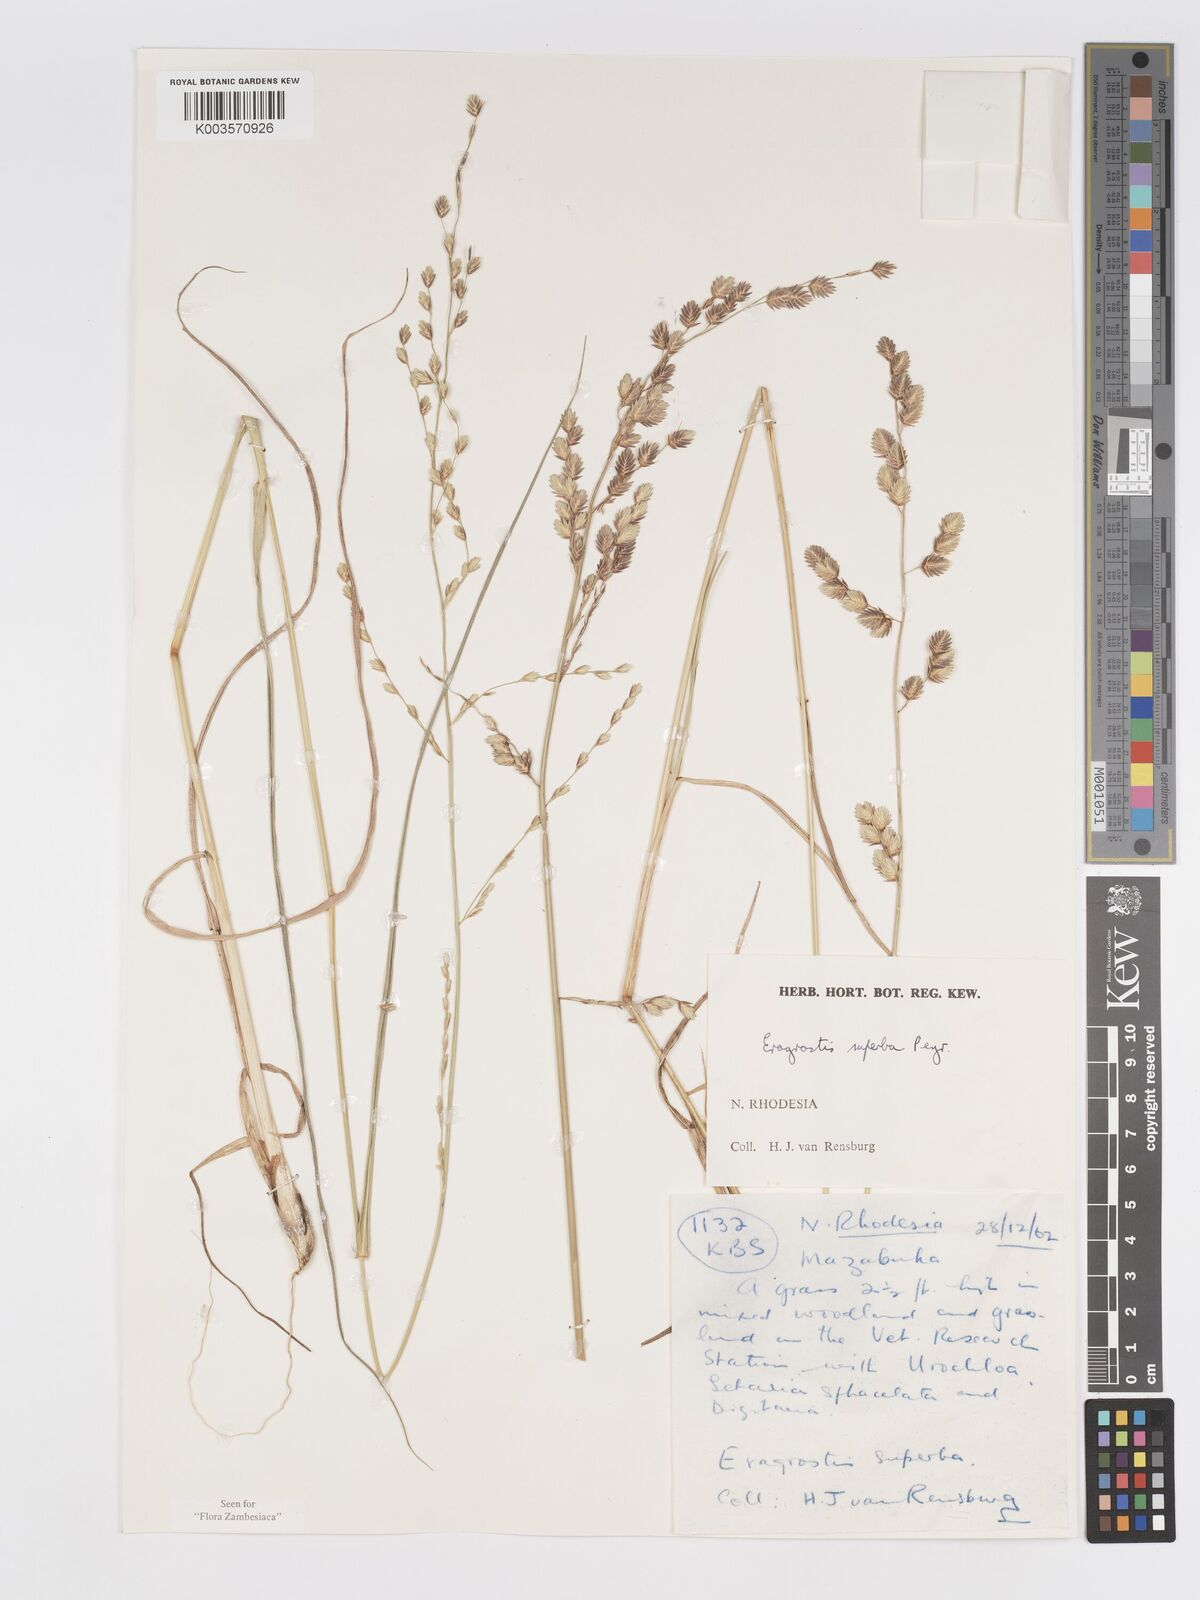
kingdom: Plantae
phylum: Tracheophyta
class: Liliopsida
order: Poales
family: Poaceae
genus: Eragrostis
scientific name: Eragrostis superba
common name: Wilman lovegrass
